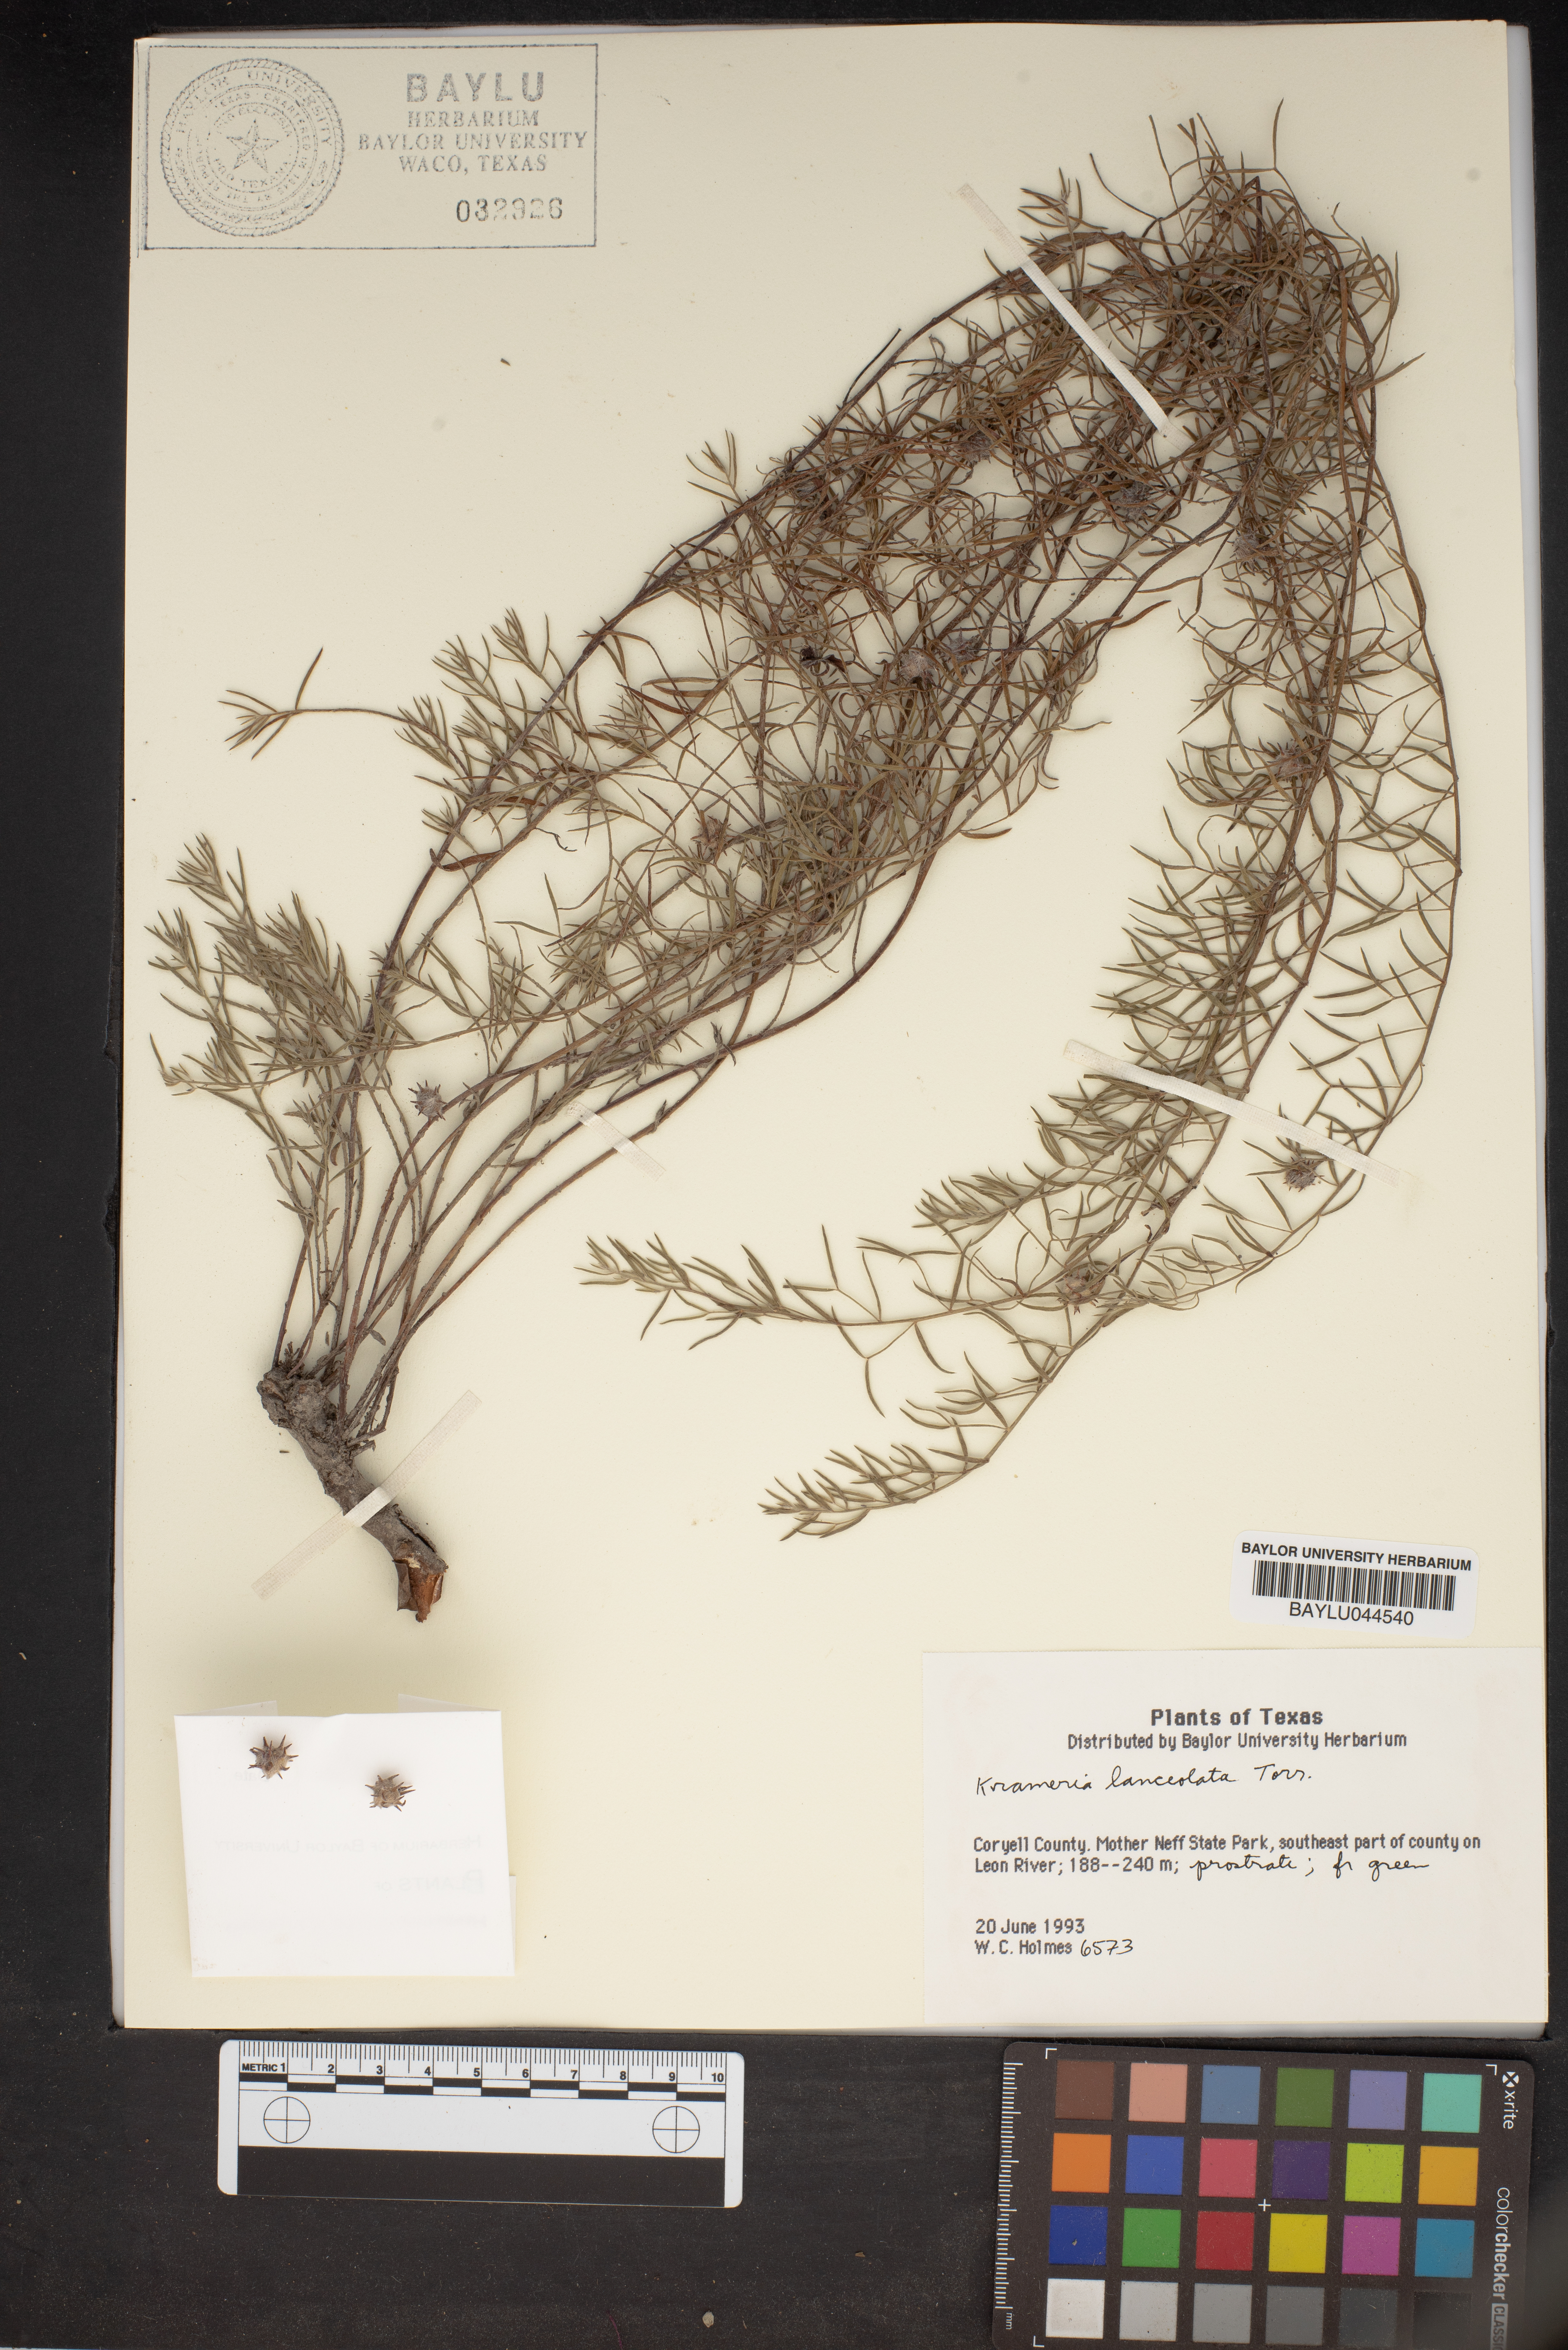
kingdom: Plantae
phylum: Tracheophyta
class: Magnoliopsida
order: Zygophyllales
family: Krameriaceae
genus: Krameria
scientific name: Krameria lanceolata
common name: Ratany
